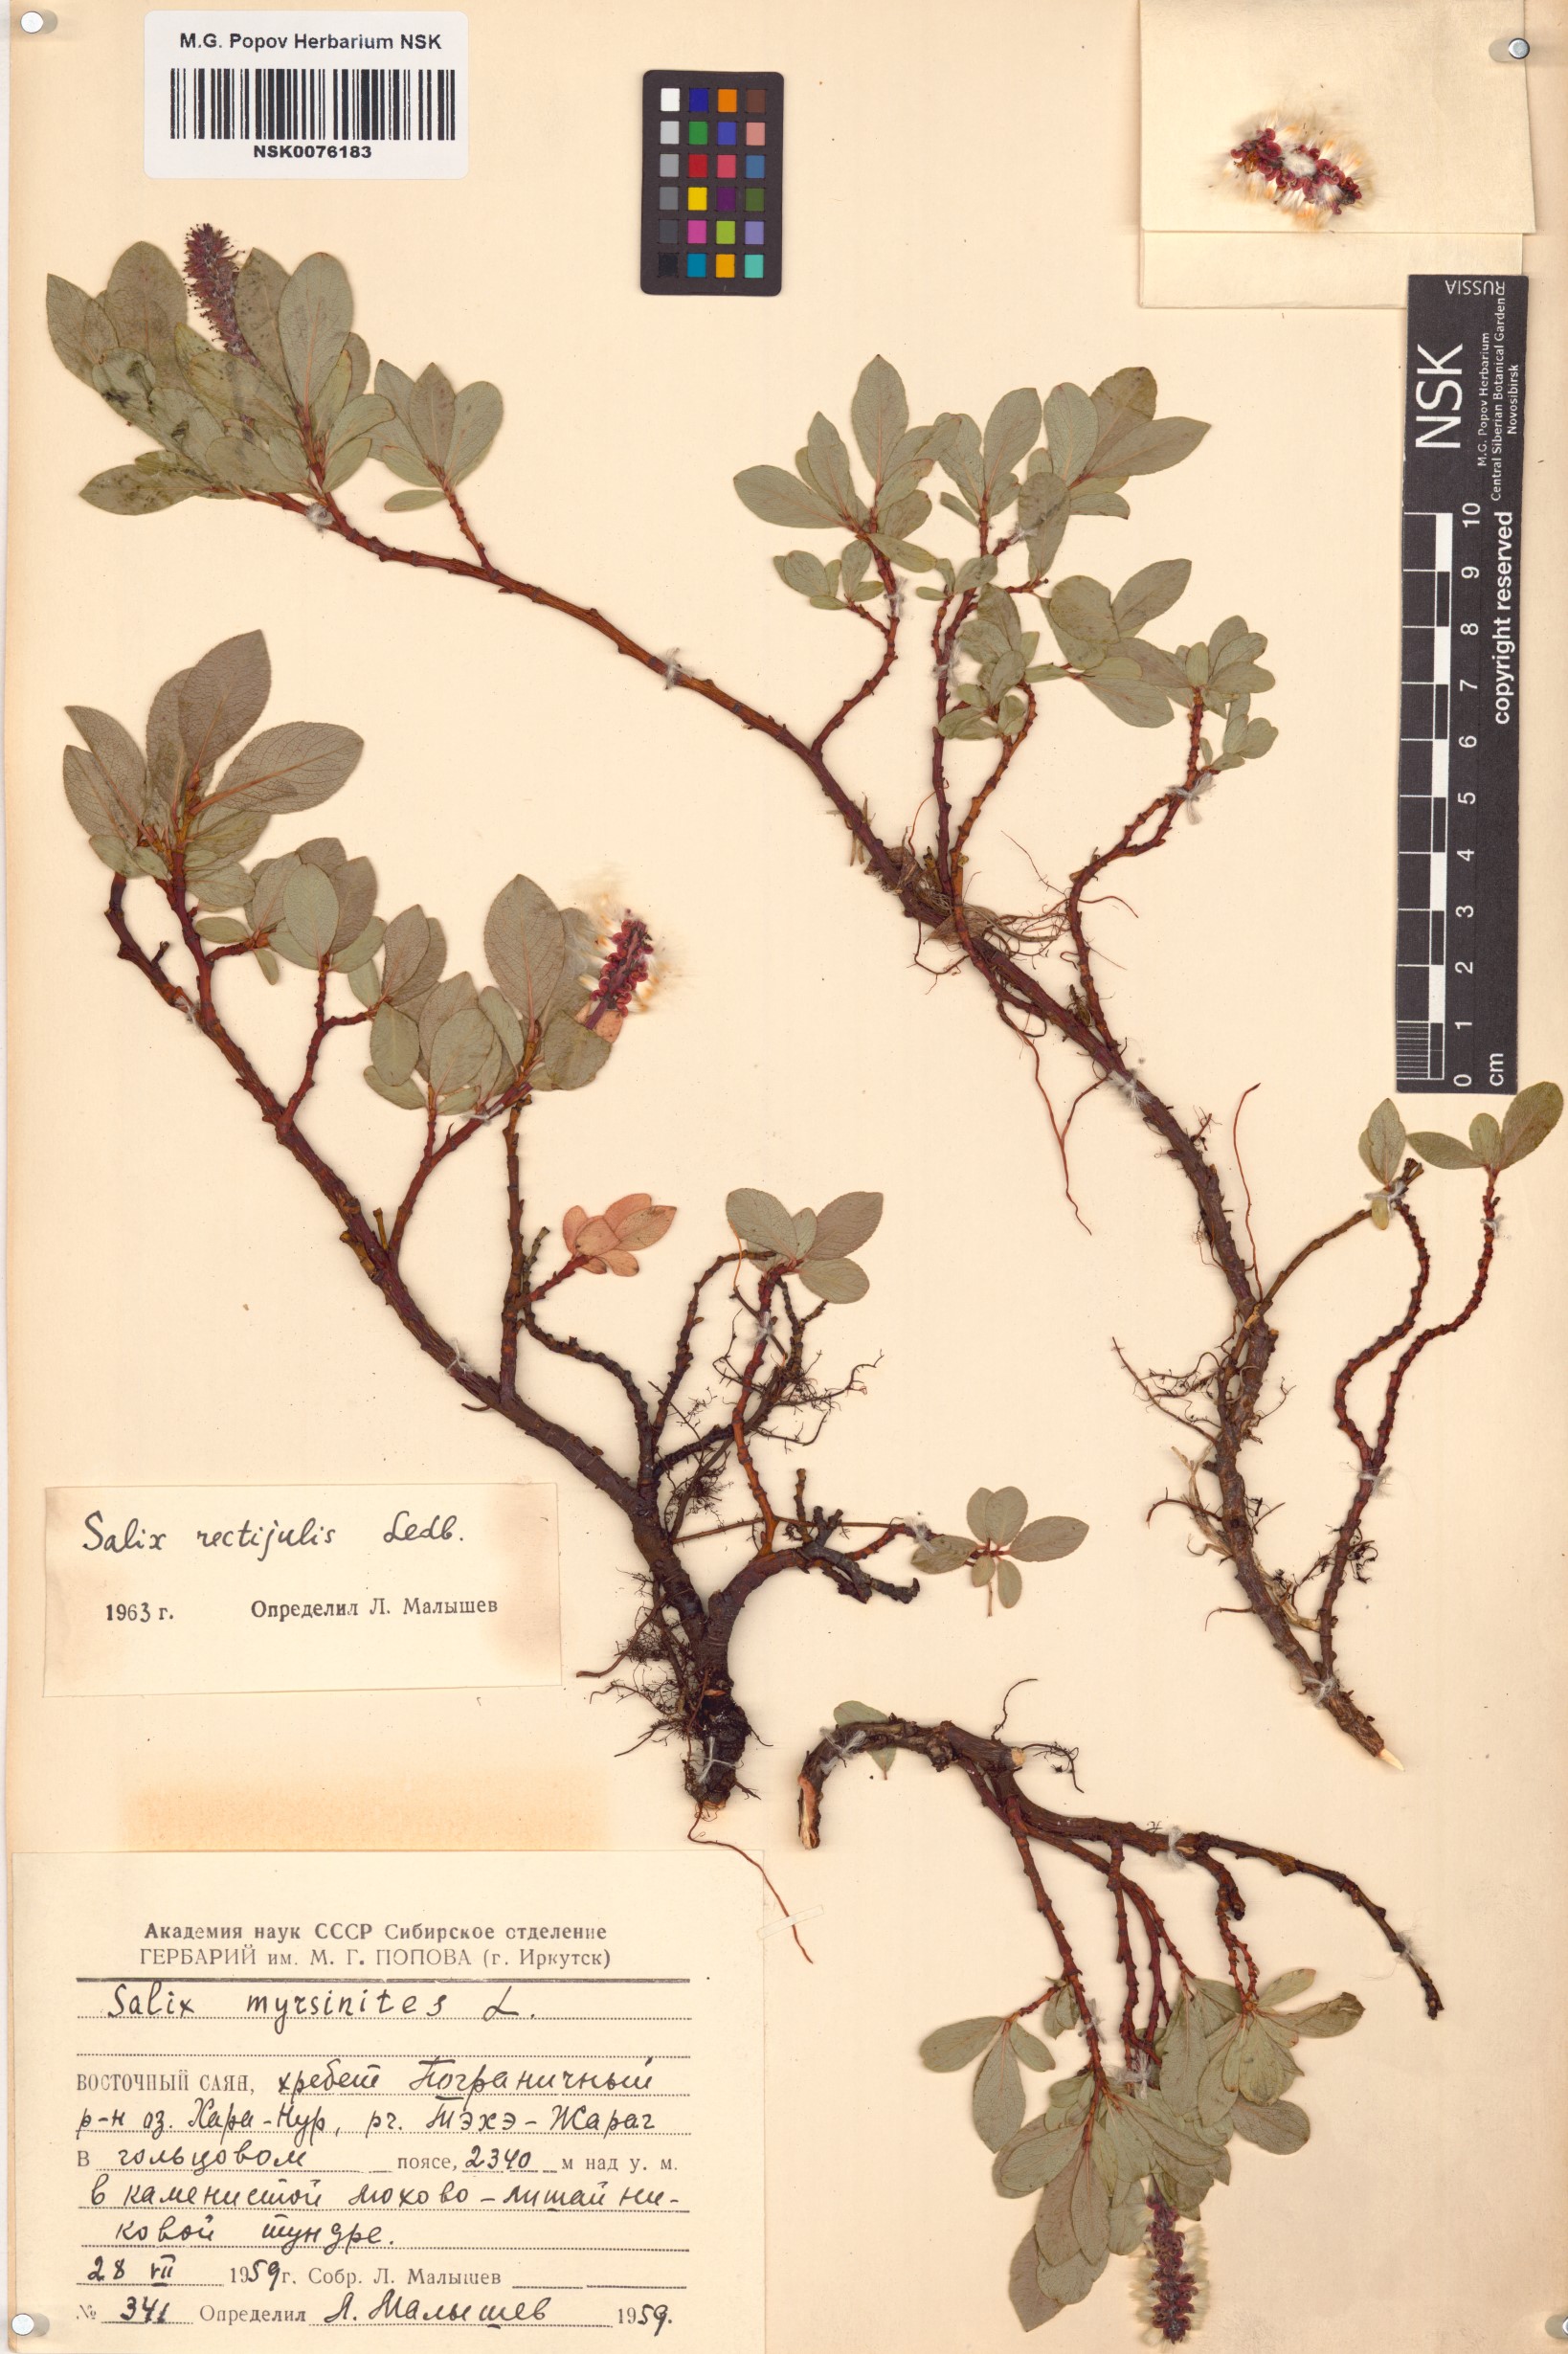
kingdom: Plantae
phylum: Tracheophyta
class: Magnoliopsida
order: Malpighiales
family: Salicaceae
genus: Salix
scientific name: Salix rectijulis
